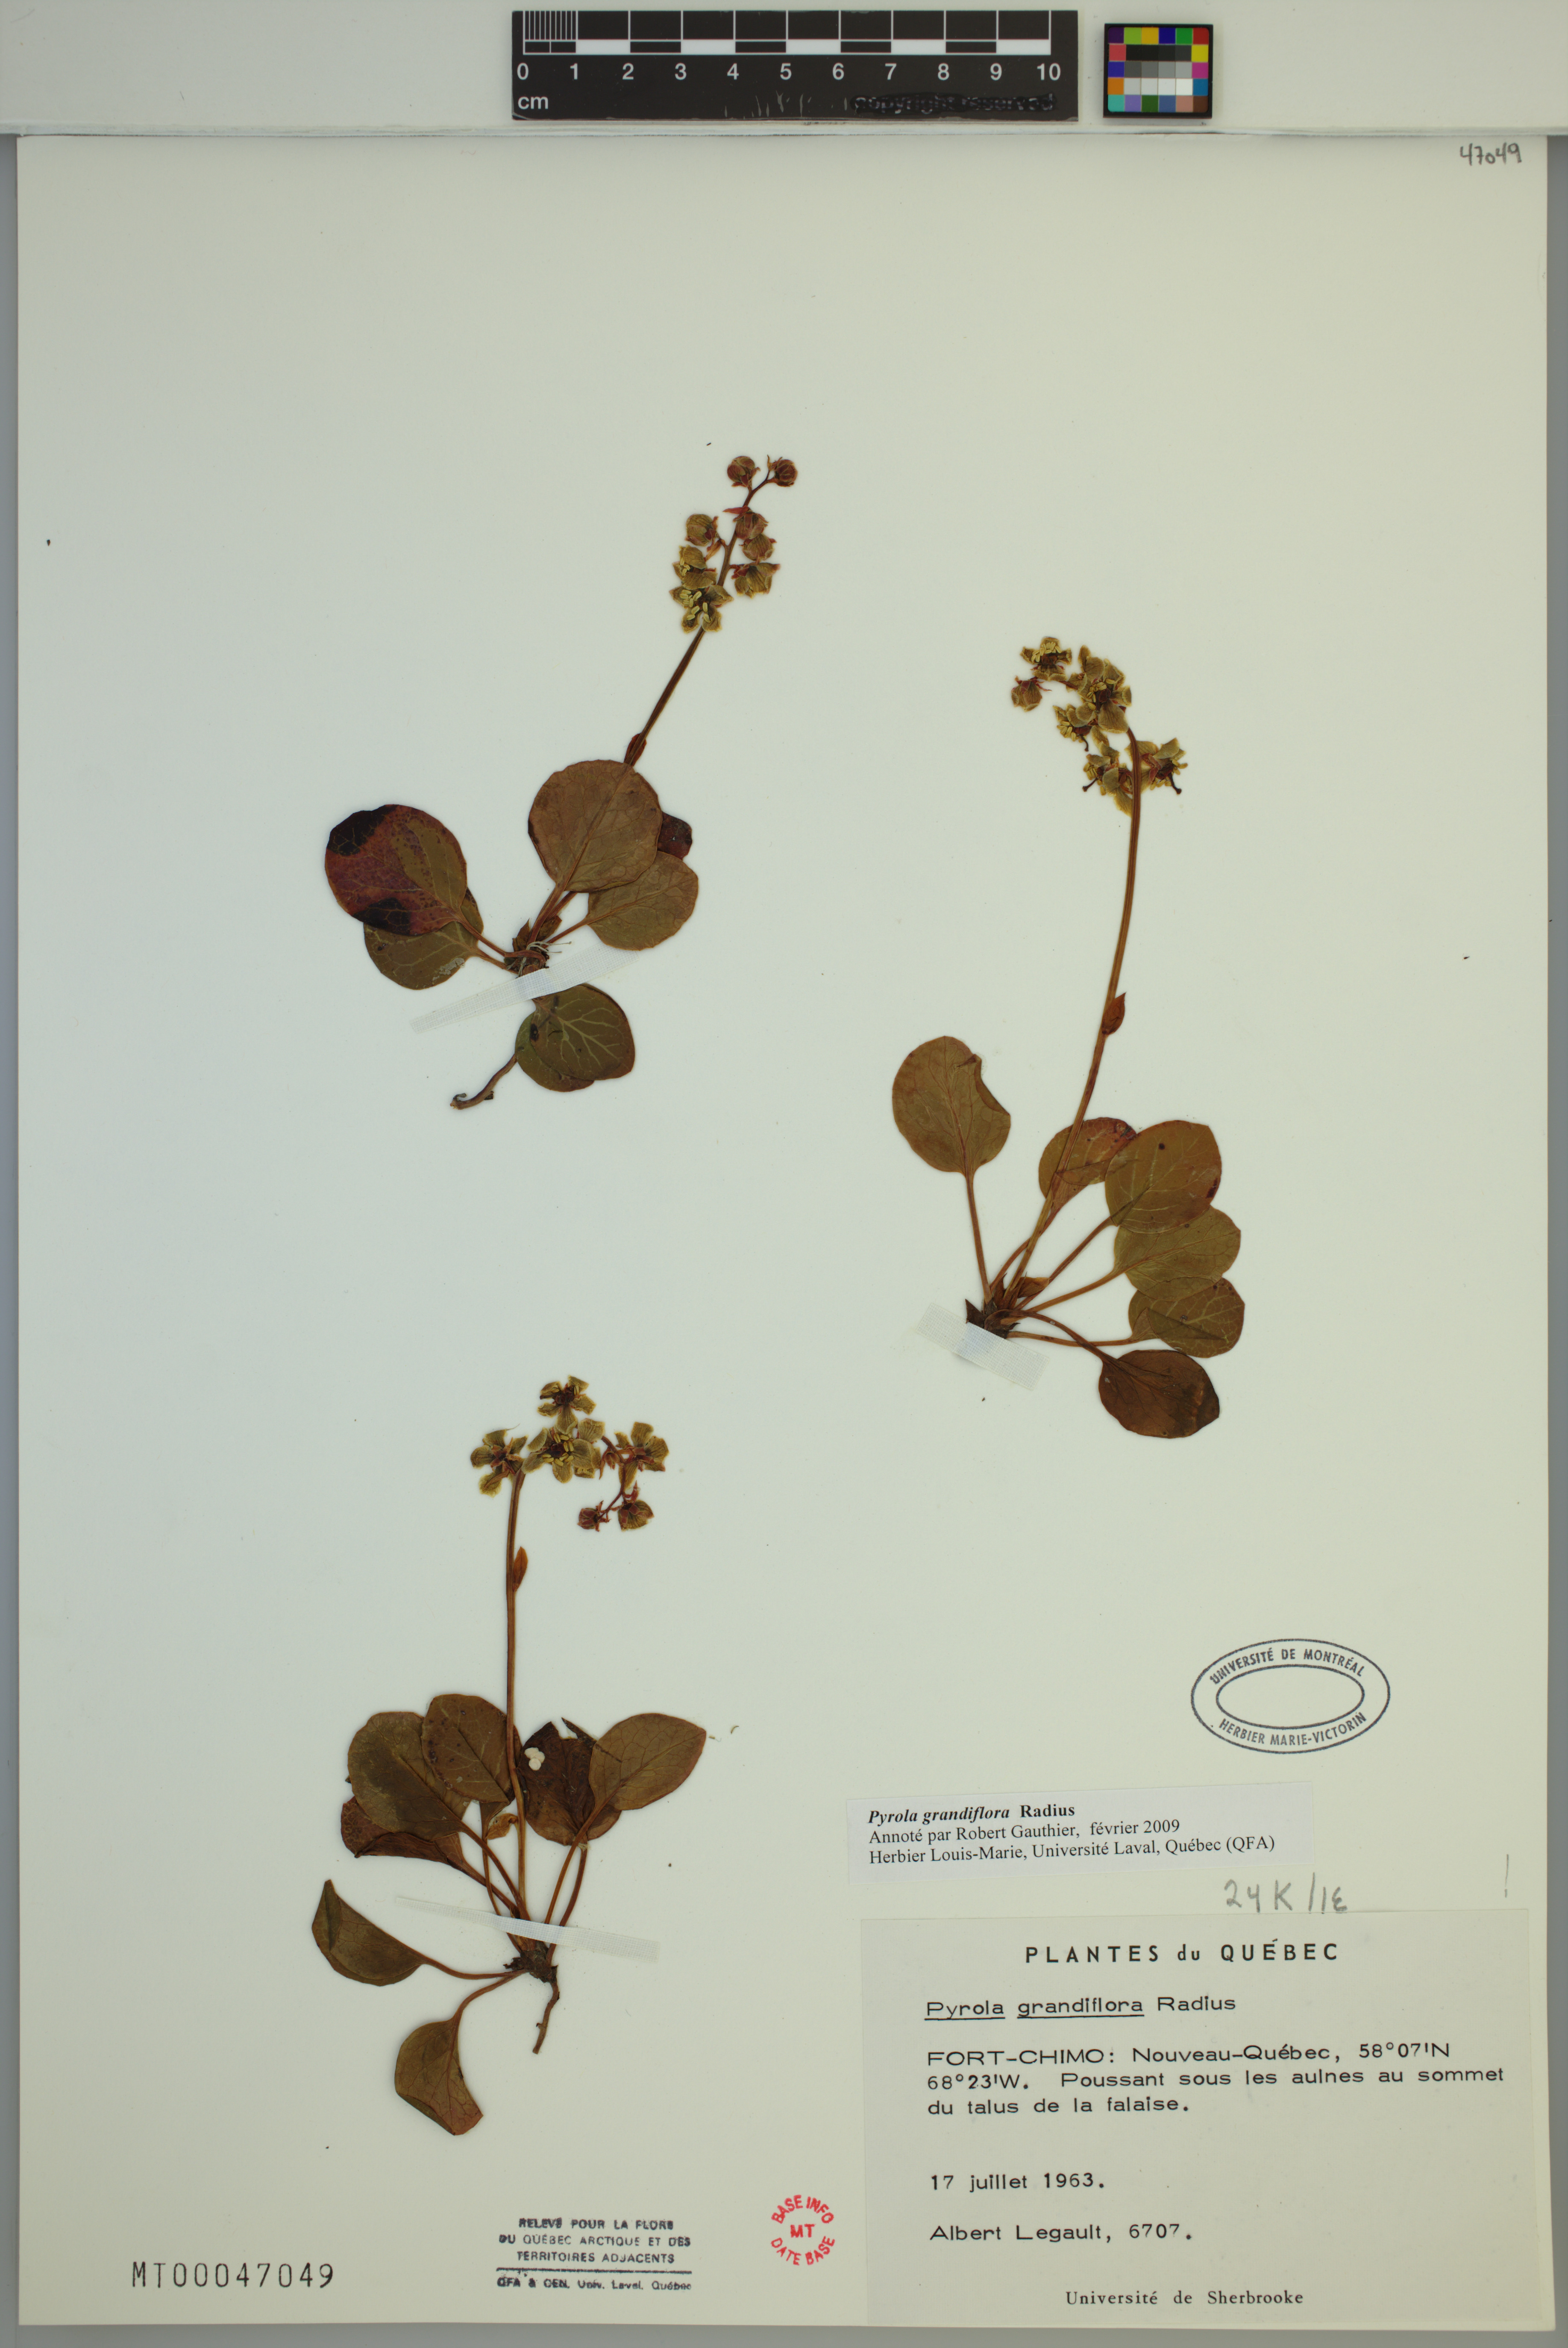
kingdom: Plantae
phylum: Tracheophyta
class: Magnoliopsida
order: Ericales
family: Ericaceae
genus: Pyrola
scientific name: Pyrola grandiflora
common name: Arctic pyrola
